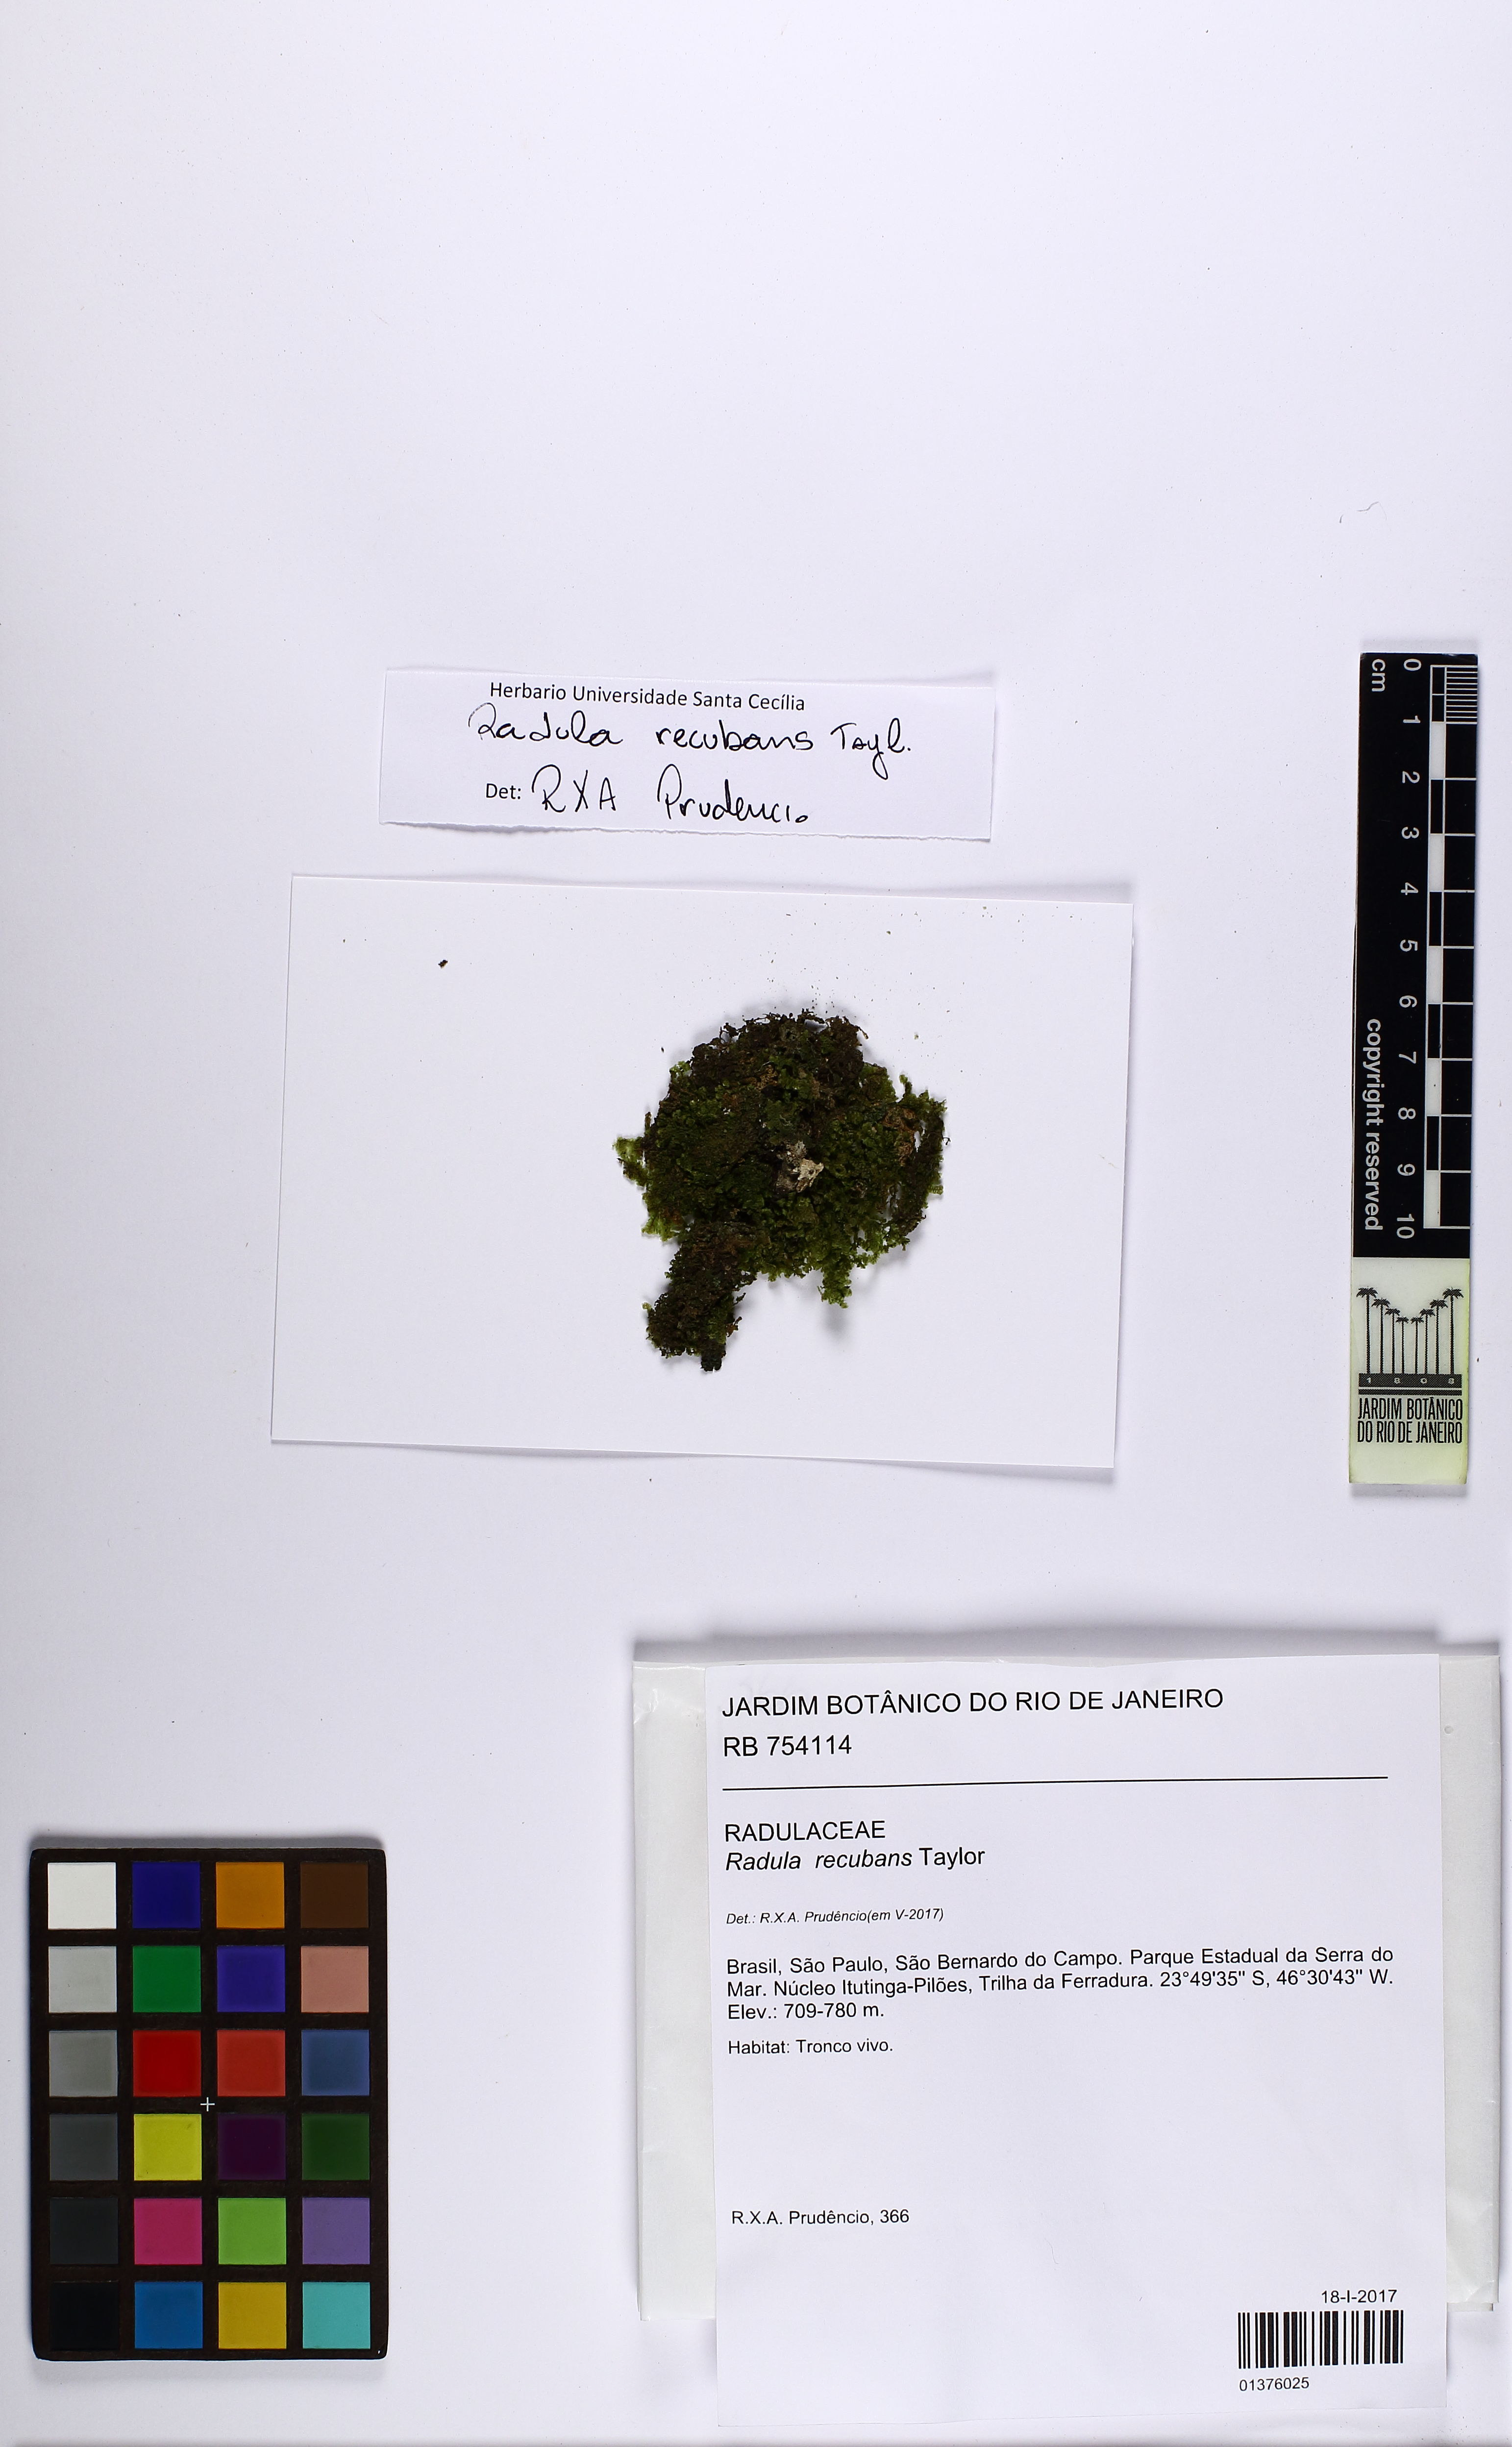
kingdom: Plantae
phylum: Marchantiophyta
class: Jungermanniopsida
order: Porellales
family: Radulaceae
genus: Radula
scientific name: Radula recubans
